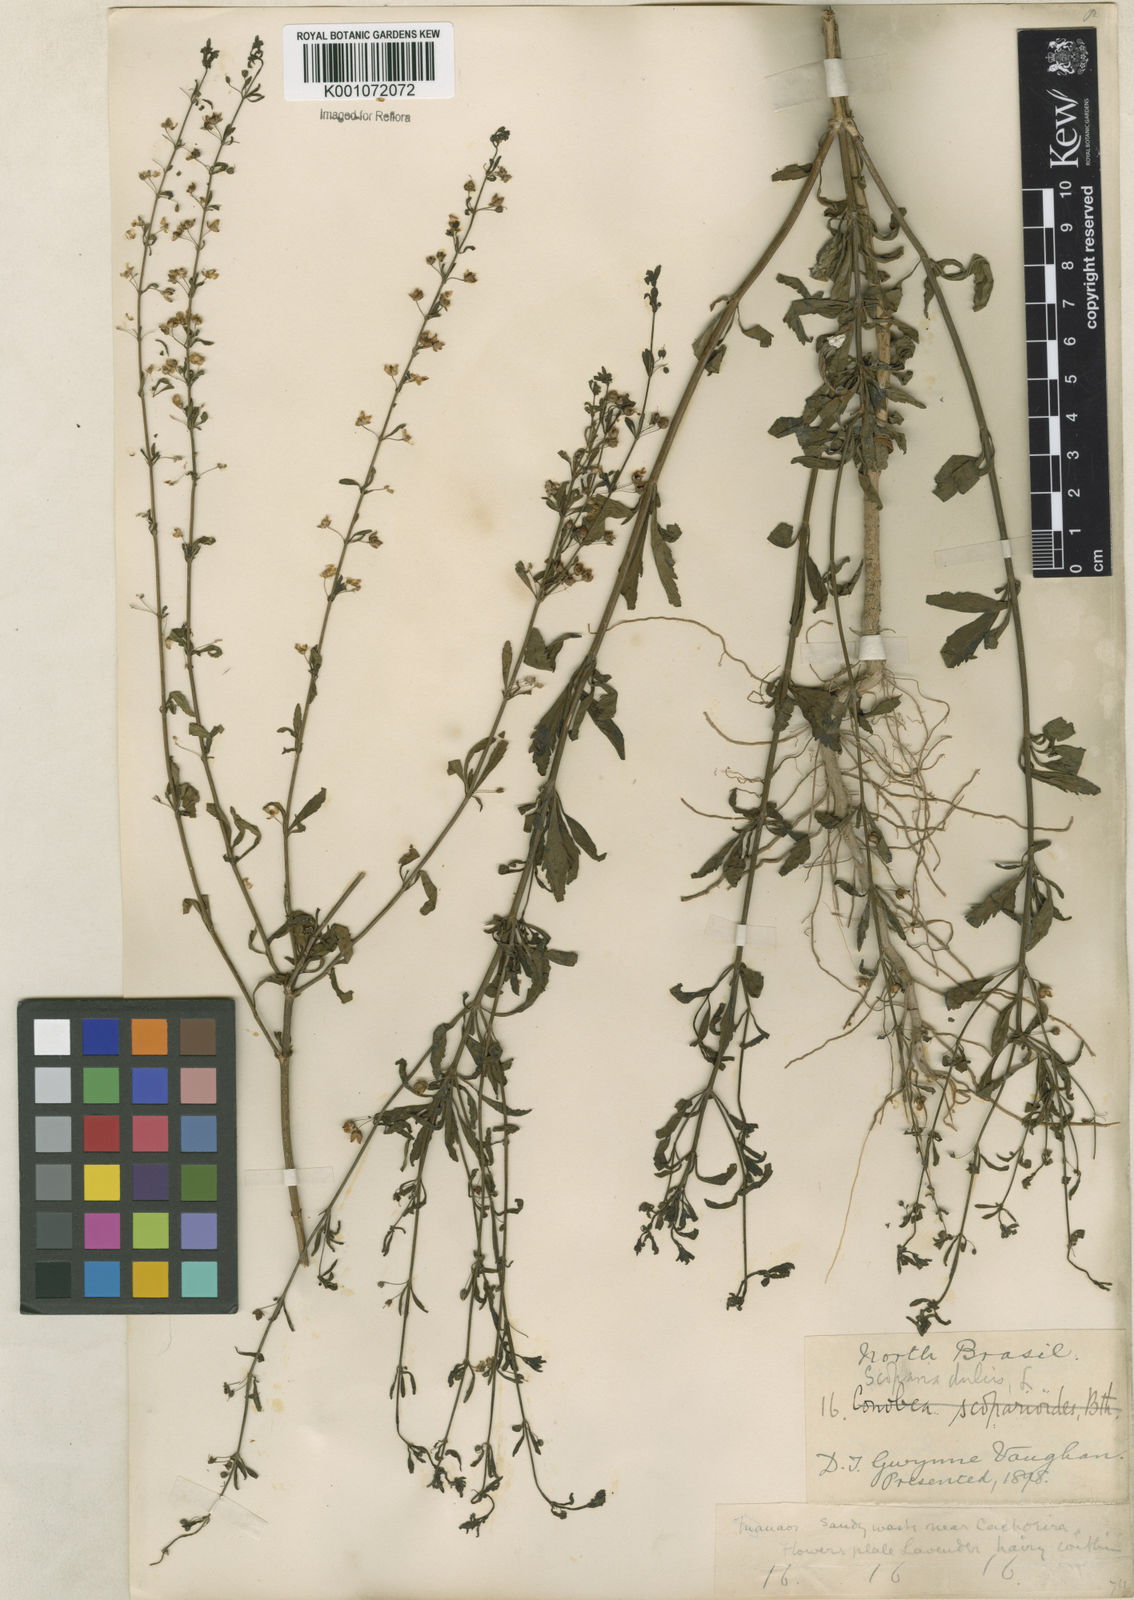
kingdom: Plantae
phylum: Tracheophyta
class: Magnoliopsida
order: Lamiales
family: Plantaginaceae
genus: Scoparia
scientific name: Scoparia dulcis
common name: Scoparia-weed
